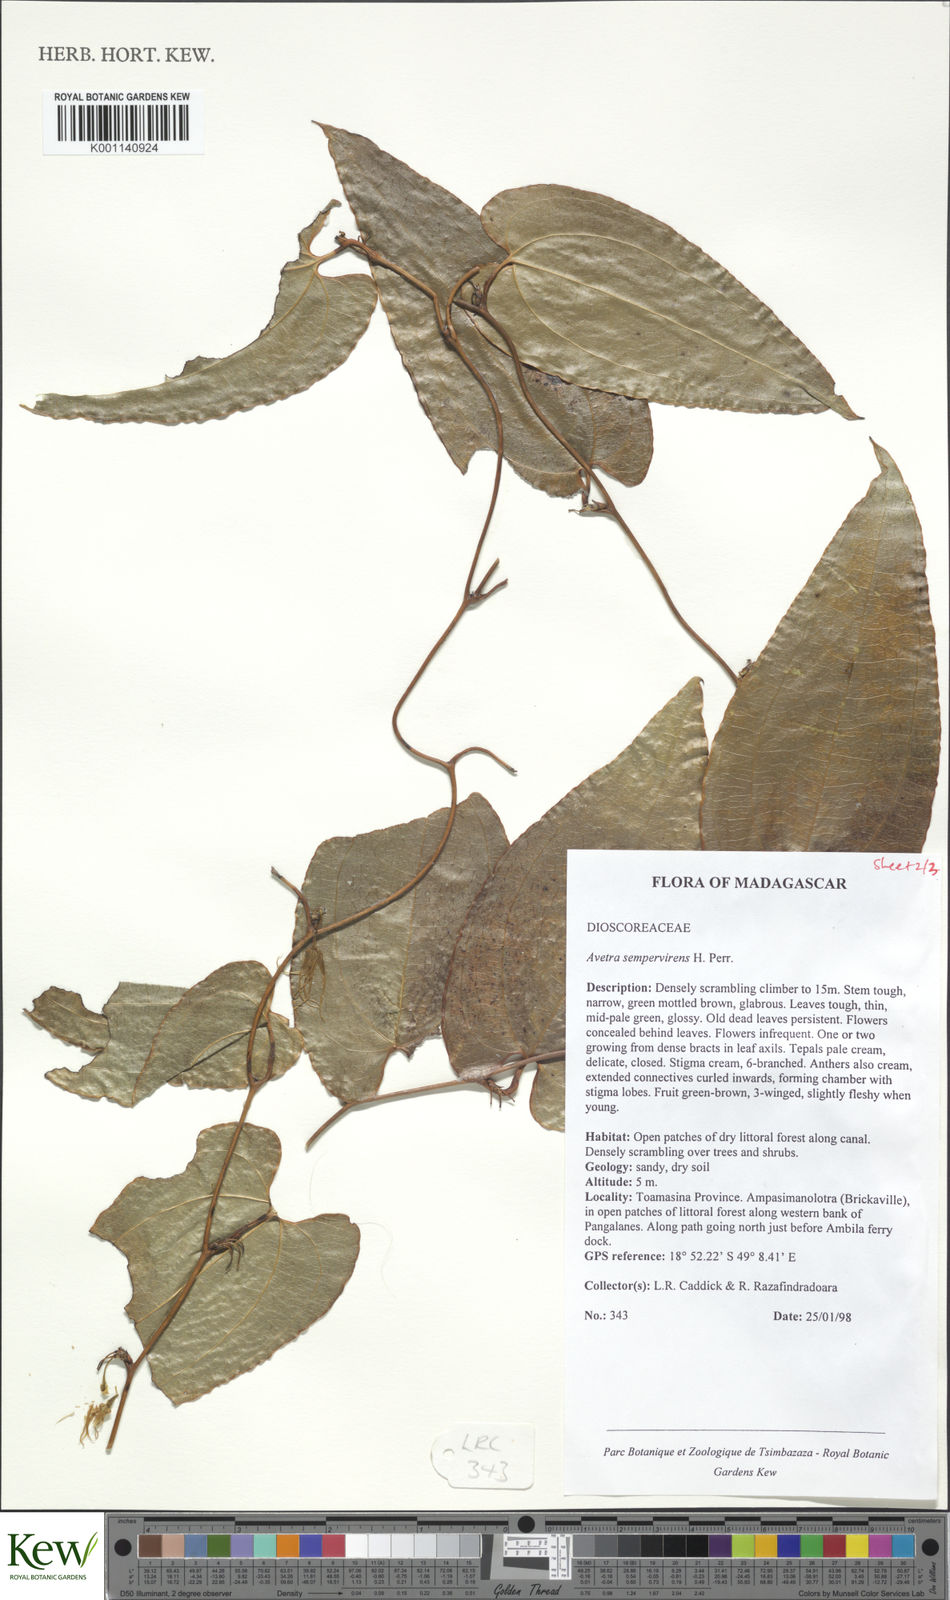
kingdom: Plantae
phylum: Tracheophyta
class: Liliopsida
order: Dioscoreales
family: Dioscoreaceae
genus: Trichopus
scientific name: Trichopus sempervirens
